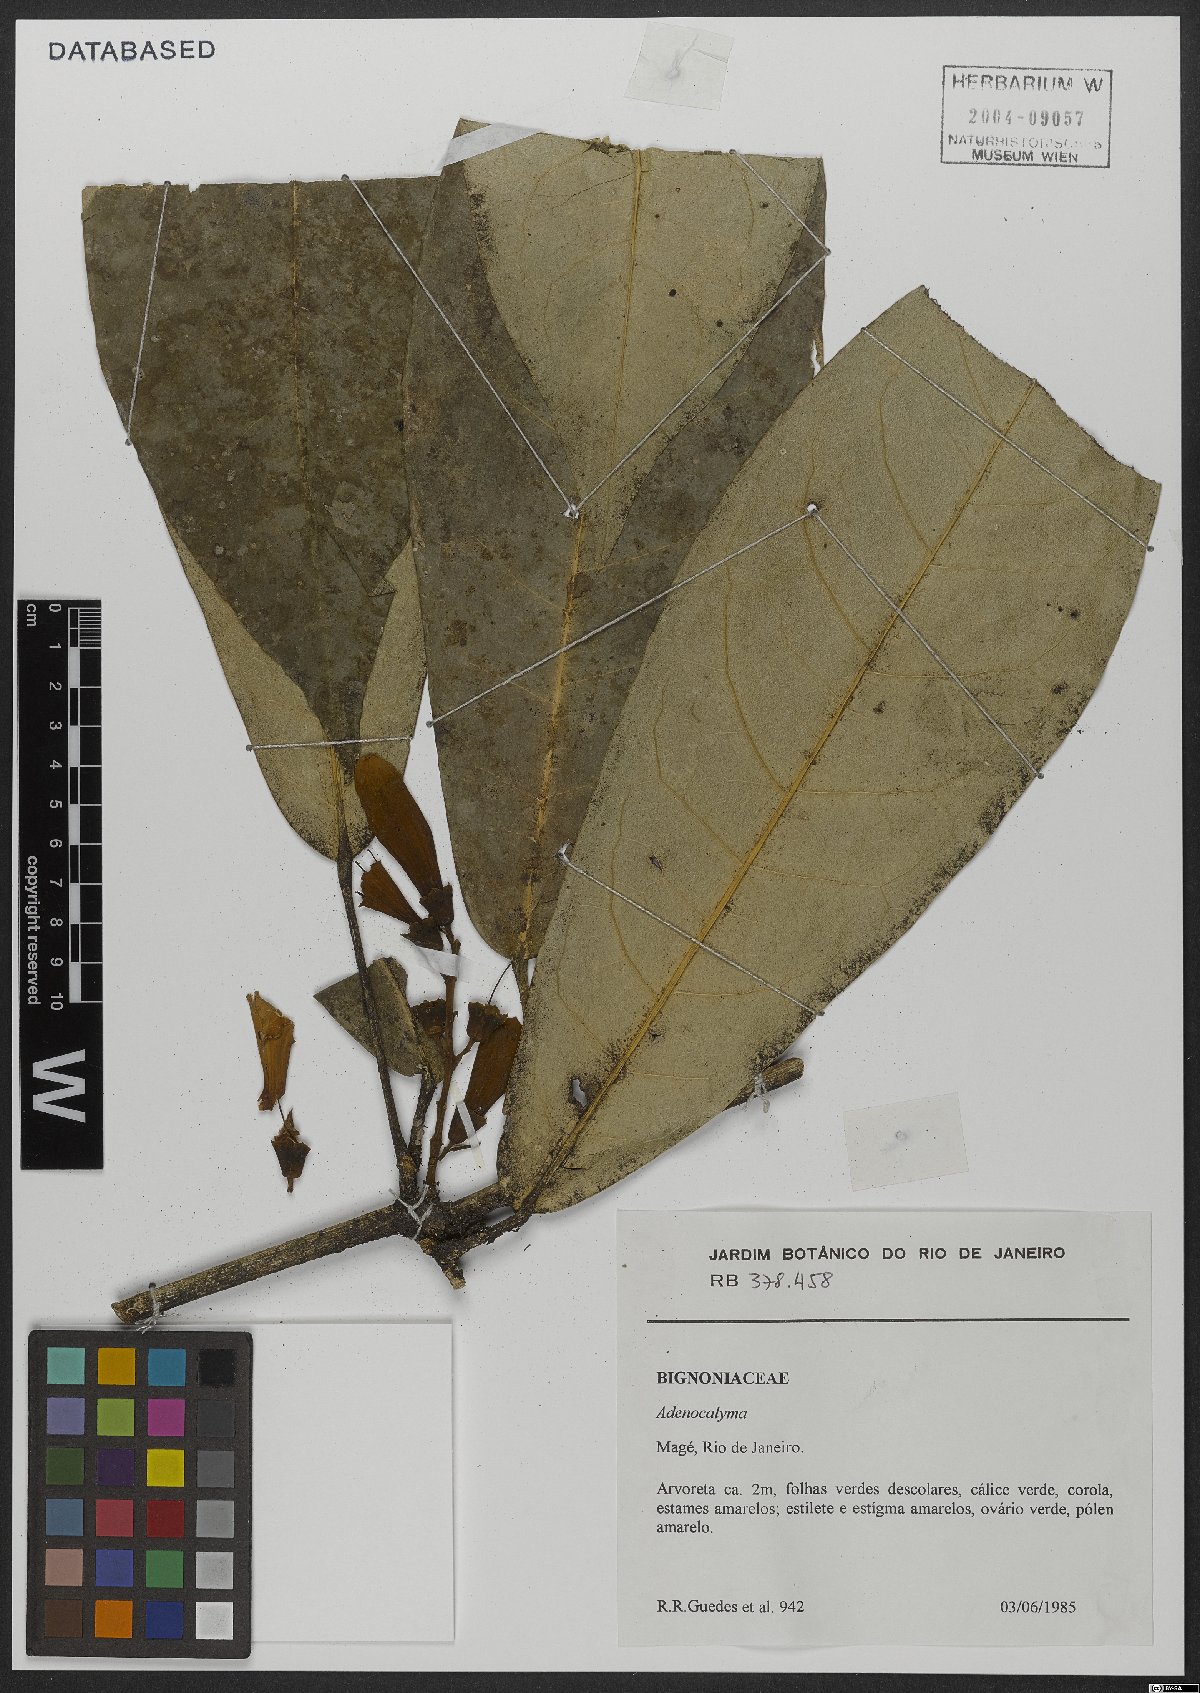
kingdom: Plantae
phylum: Tracheophyta
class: Magnoliopsida
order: Lamiales
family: Bignoniaceae
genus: Adenocalymma
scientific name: Adenocalymma
